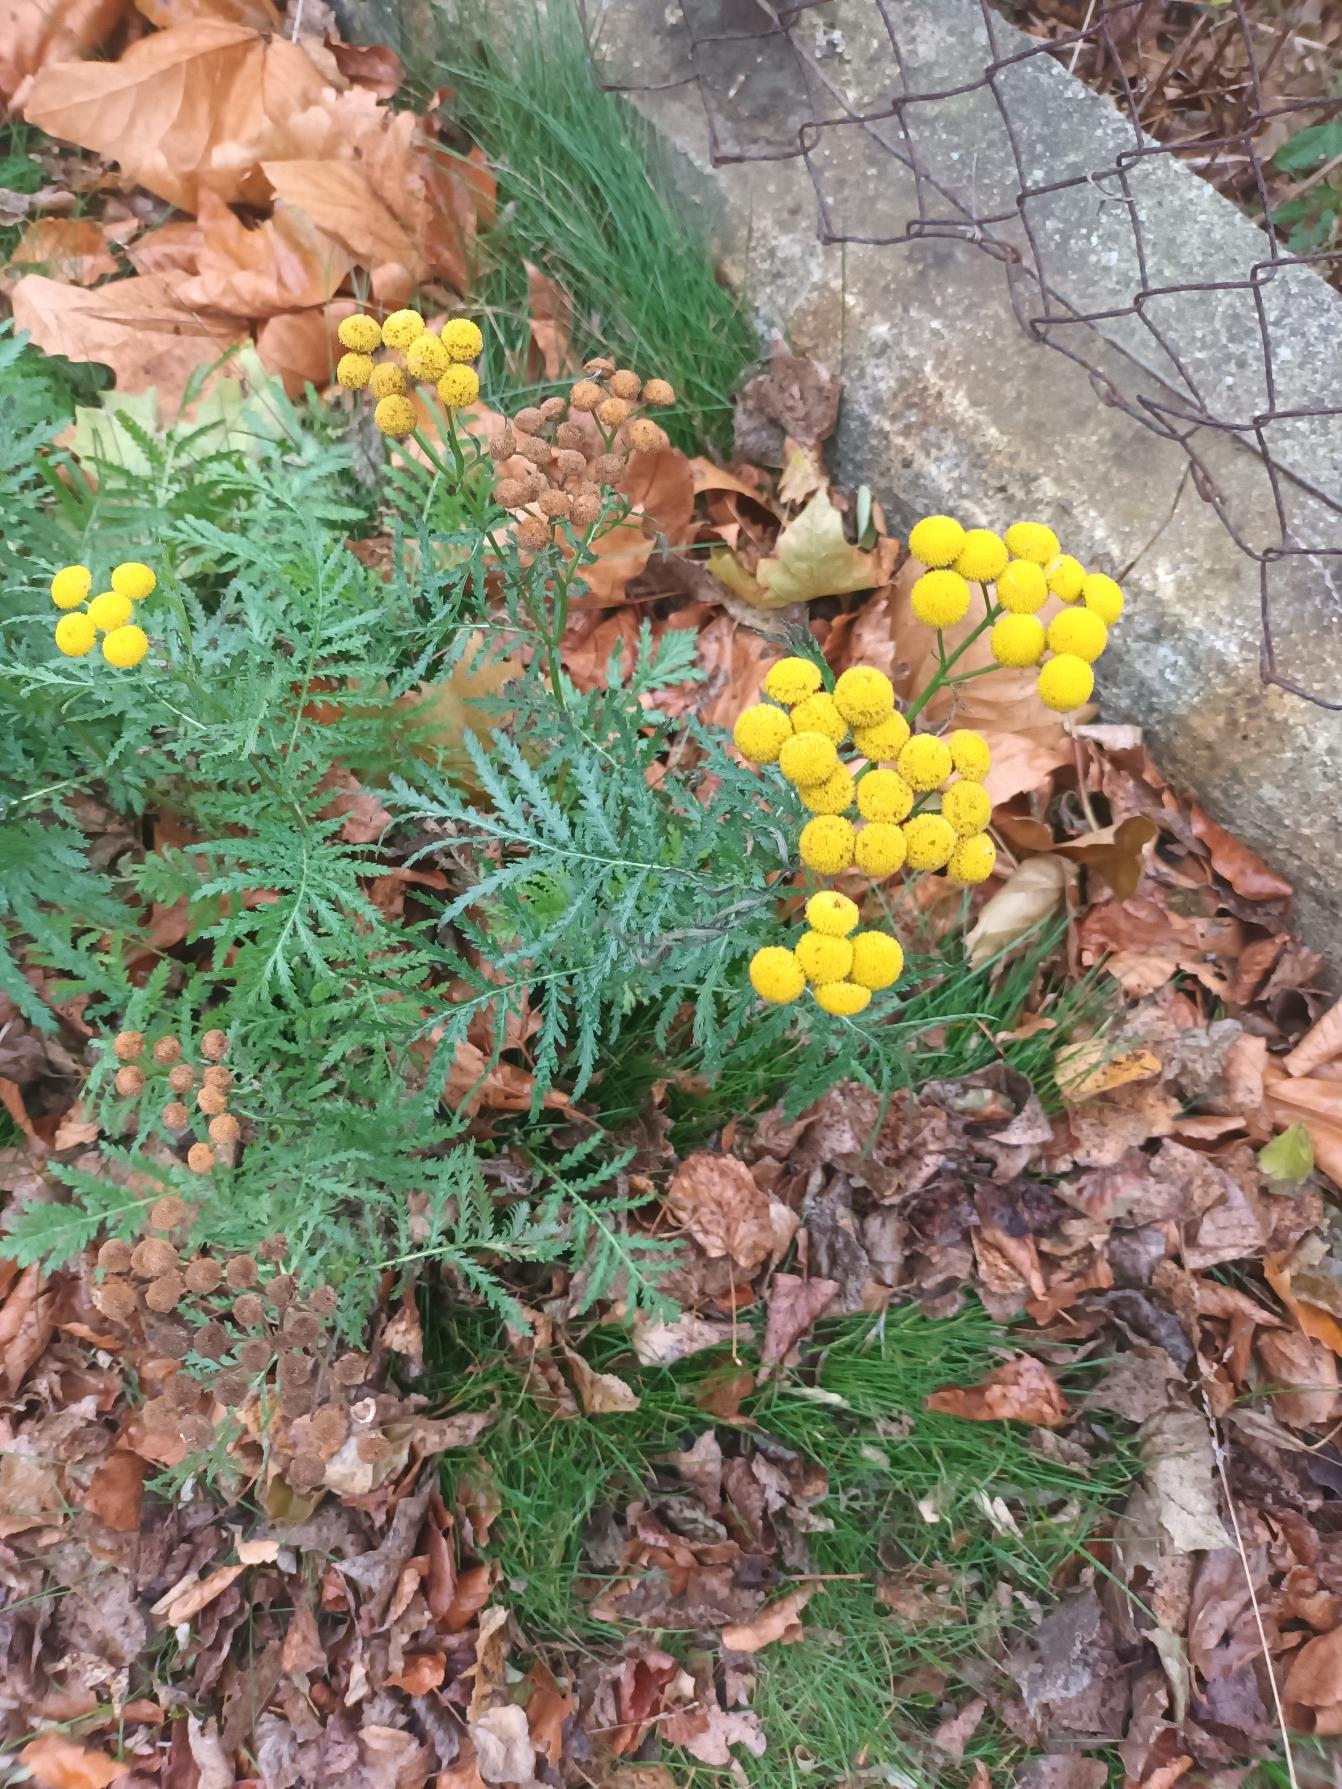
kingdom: Plantae
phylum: Tracheophyta
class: Magnoliopsida
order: Asterales
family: Asteraceae
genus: Tanacetum
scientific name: Tanacetum vulgare
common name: Rejnfan
